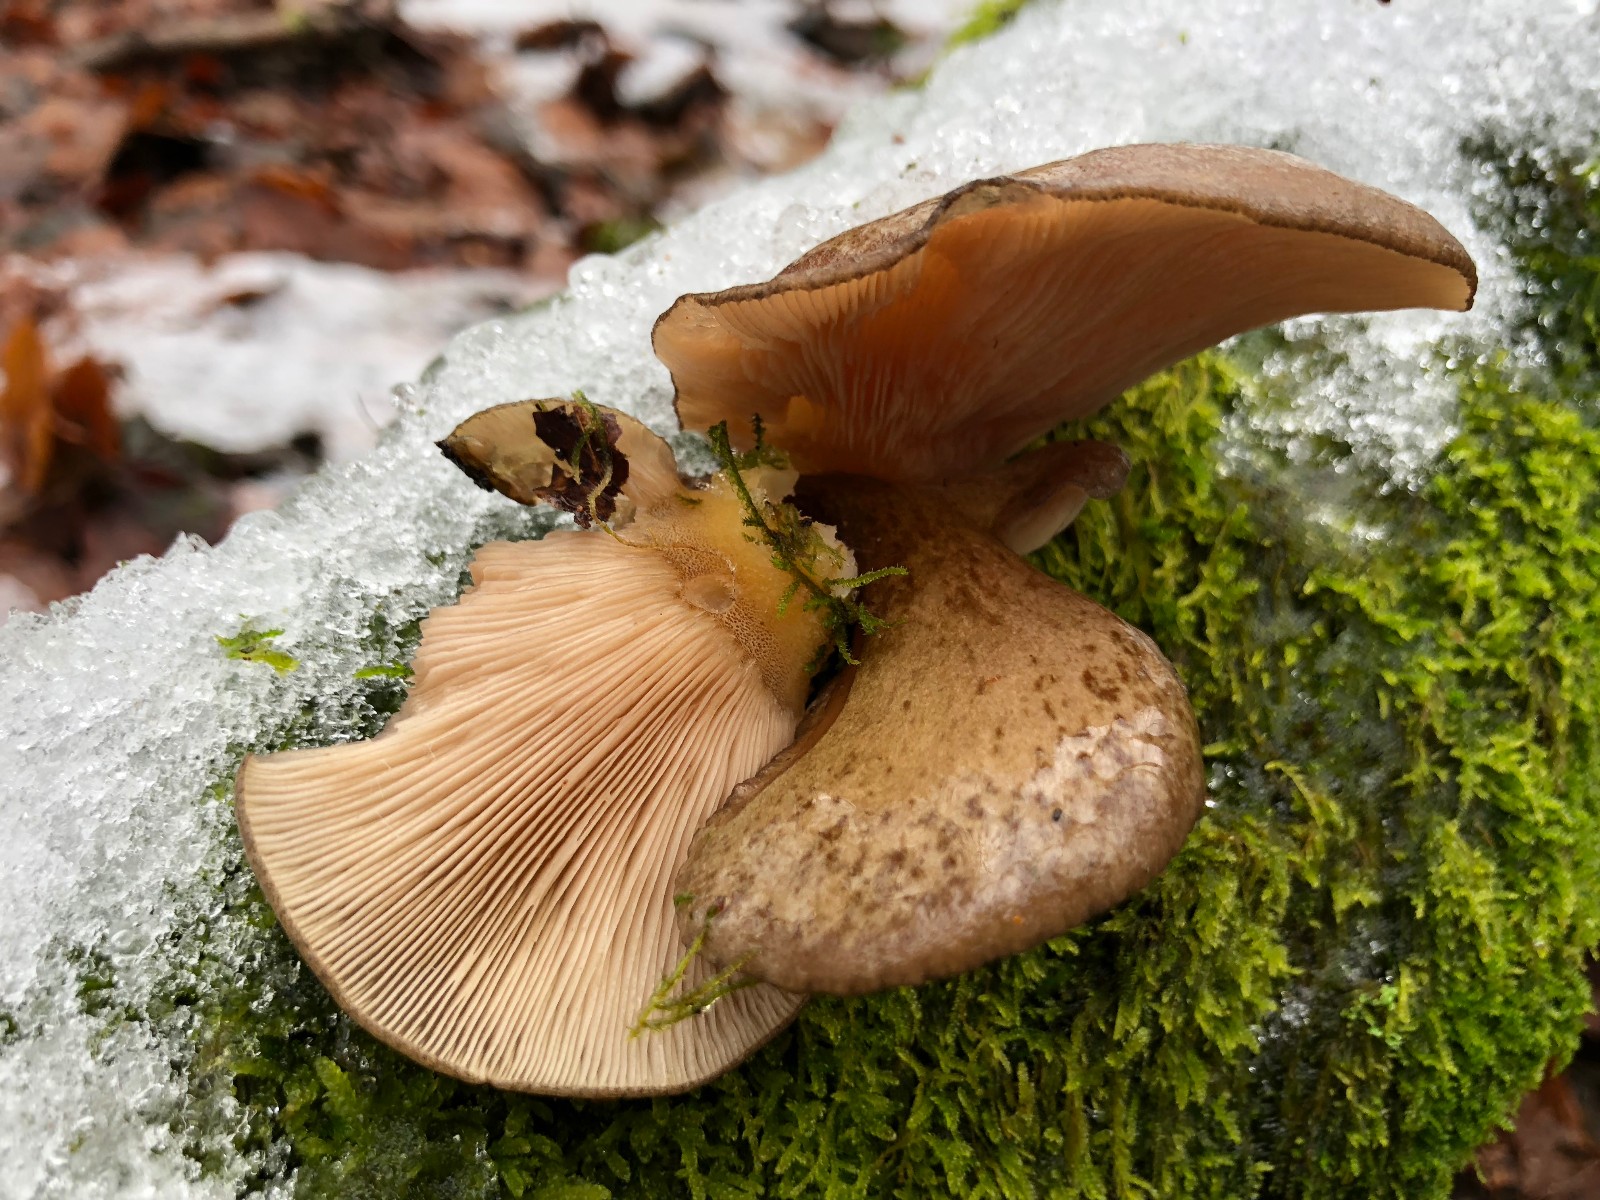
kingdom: Fungi
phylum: Basidiomycota
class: Agaricomycetes
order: Agaricales
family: Sarcomyxaceae
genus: Sarcomyxa
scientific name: Sarcomyxa serotina
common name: gummihat
